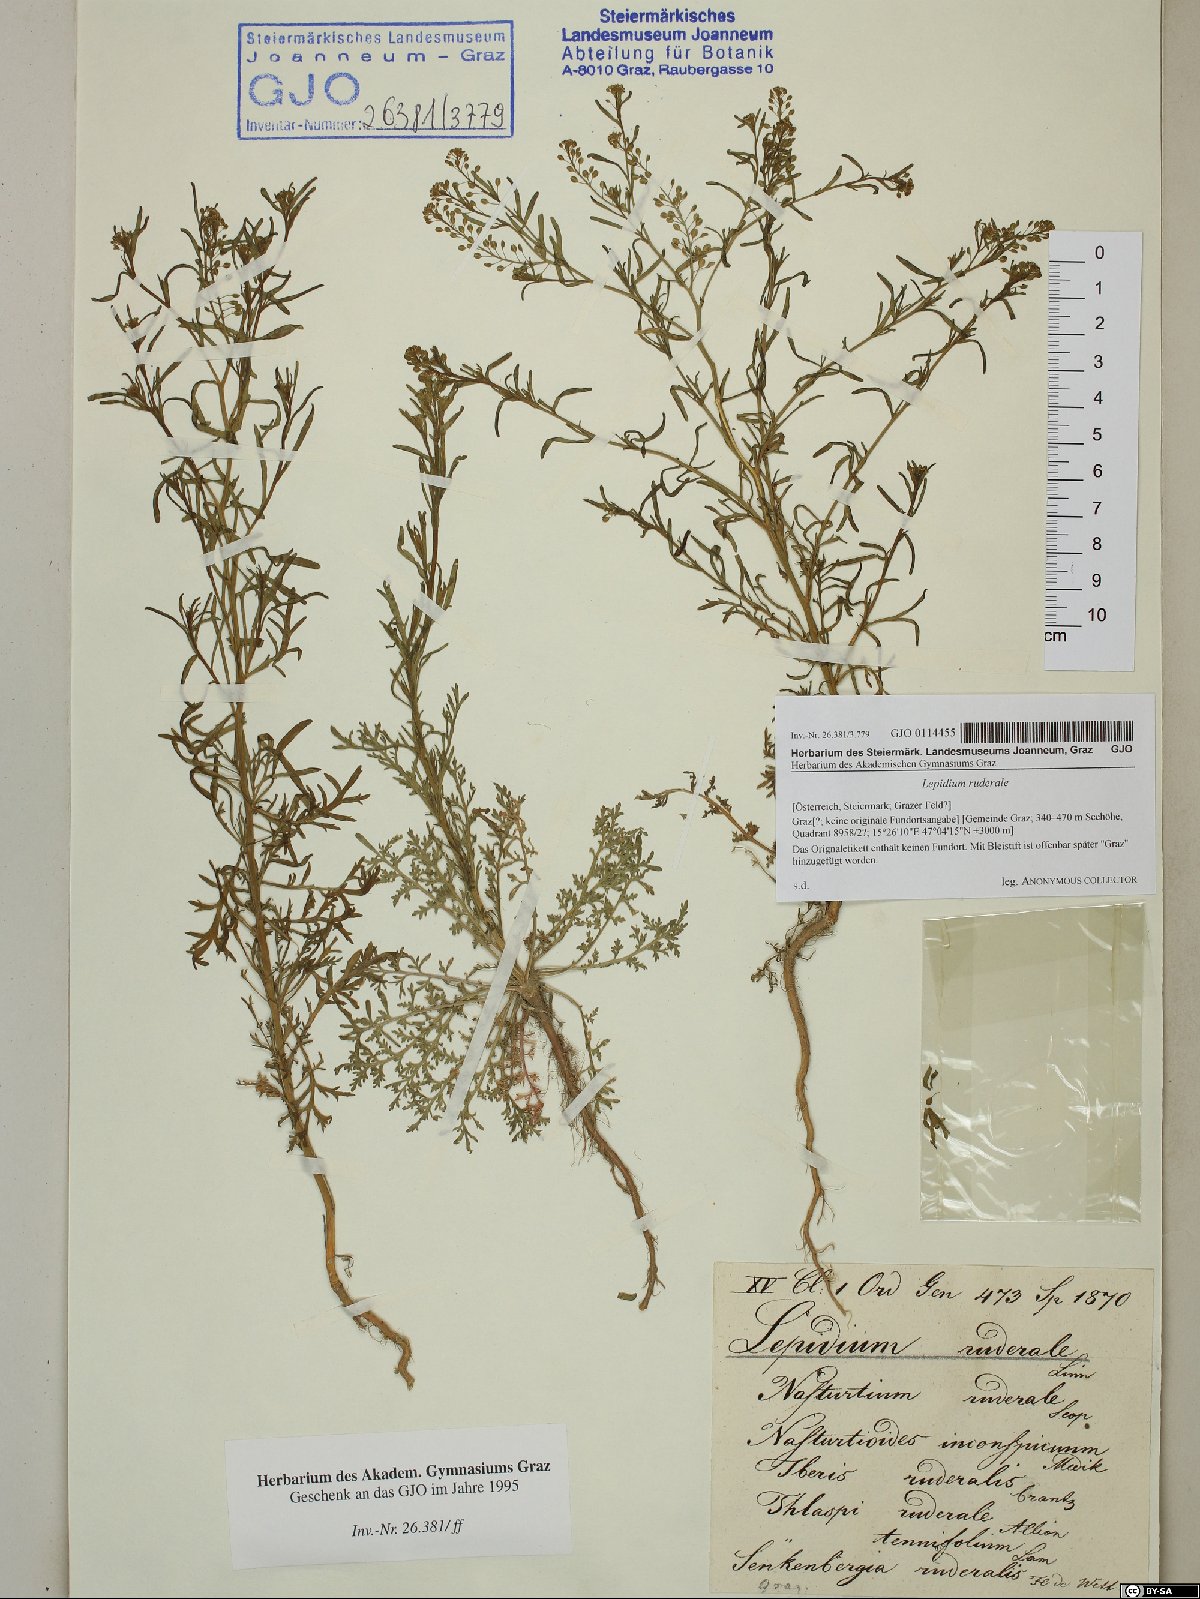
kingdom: Plantae
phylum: Tracheophyta
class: Magnoliopsida
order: Brassicales
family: Brassicaceae
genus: Lepidium
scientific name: Lepidium ruderale
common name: Narrow-leaved pepperwort
